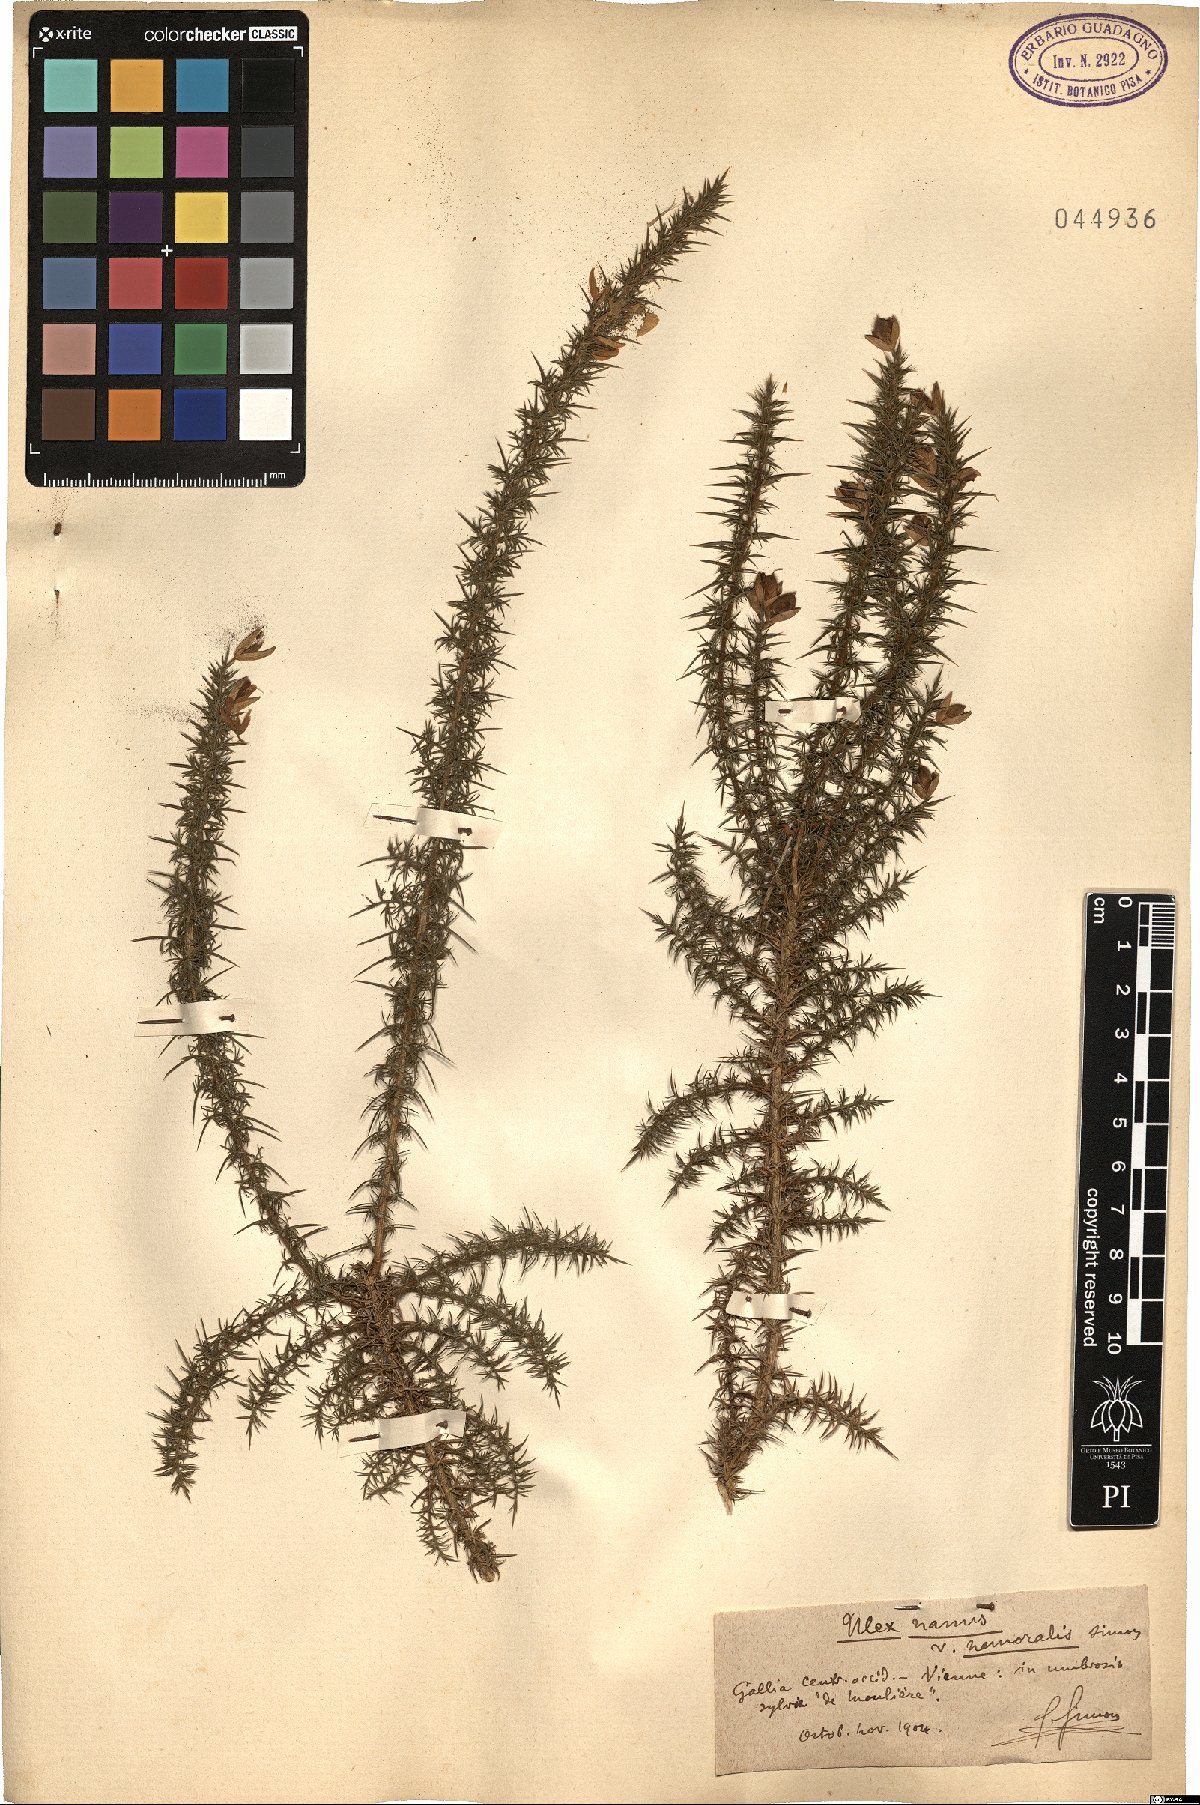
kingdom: Plantae
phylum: Tracheophyta
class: Magnoliopsida
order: Fabales
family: Fabaceae
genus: Ulex
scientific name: Ulex minor
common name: Dwarf gorse
